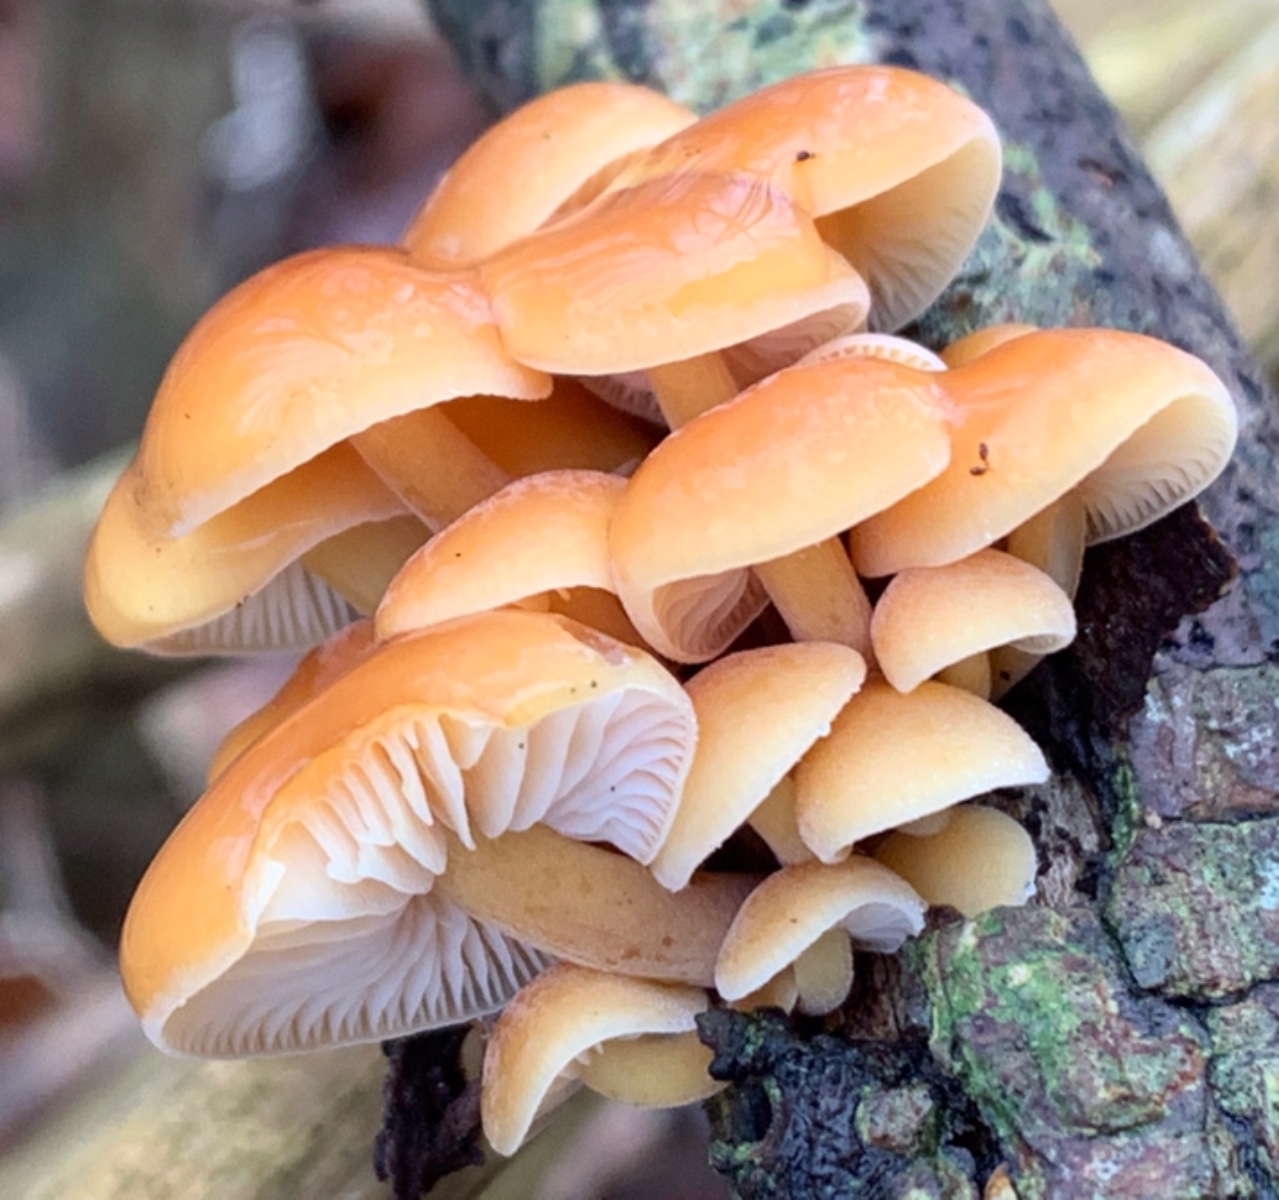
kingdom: Fungi
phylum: Basidiomycota
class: Agaricomycetes
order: Agaricales
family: Physalacriaceae
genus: Flammulina
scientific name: Flammulina velutipes
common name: gul fløjlsfod
